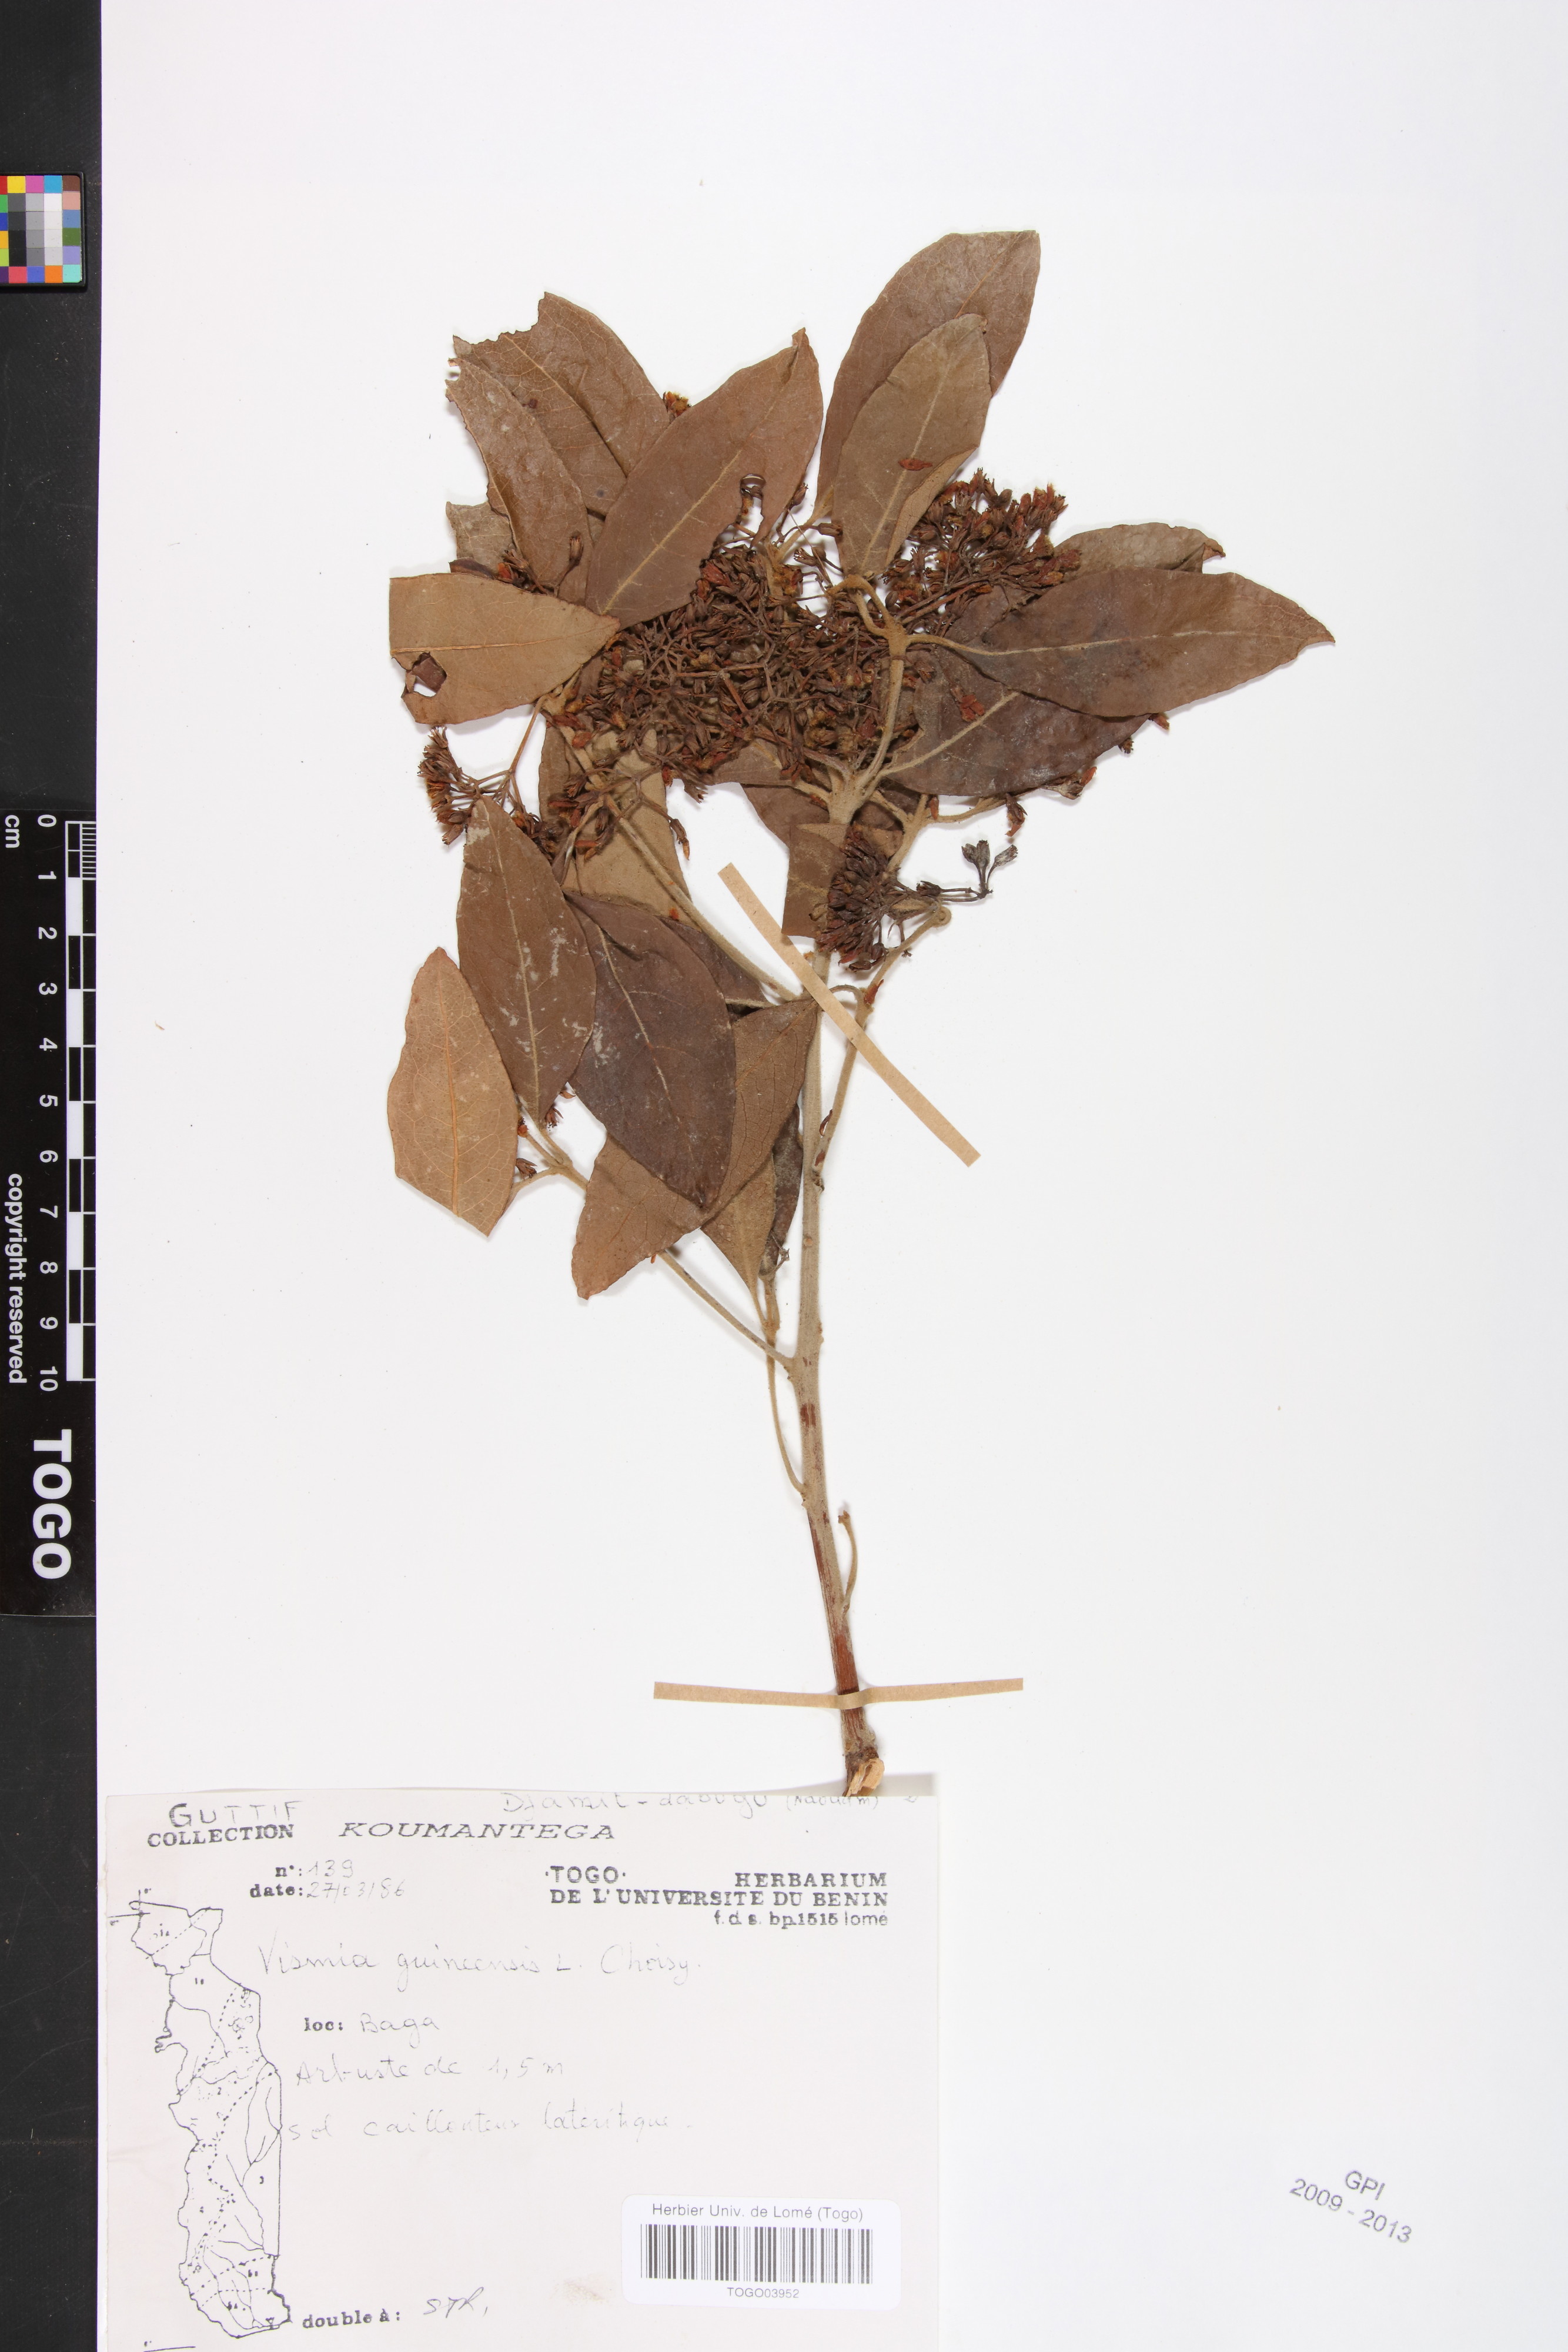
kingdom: Plantae
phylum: Tracheophyta
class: Magnoliopsida
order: Malpighiales
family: Hypericaceae
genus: Psorospermum
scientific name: Psorospermum guineense
